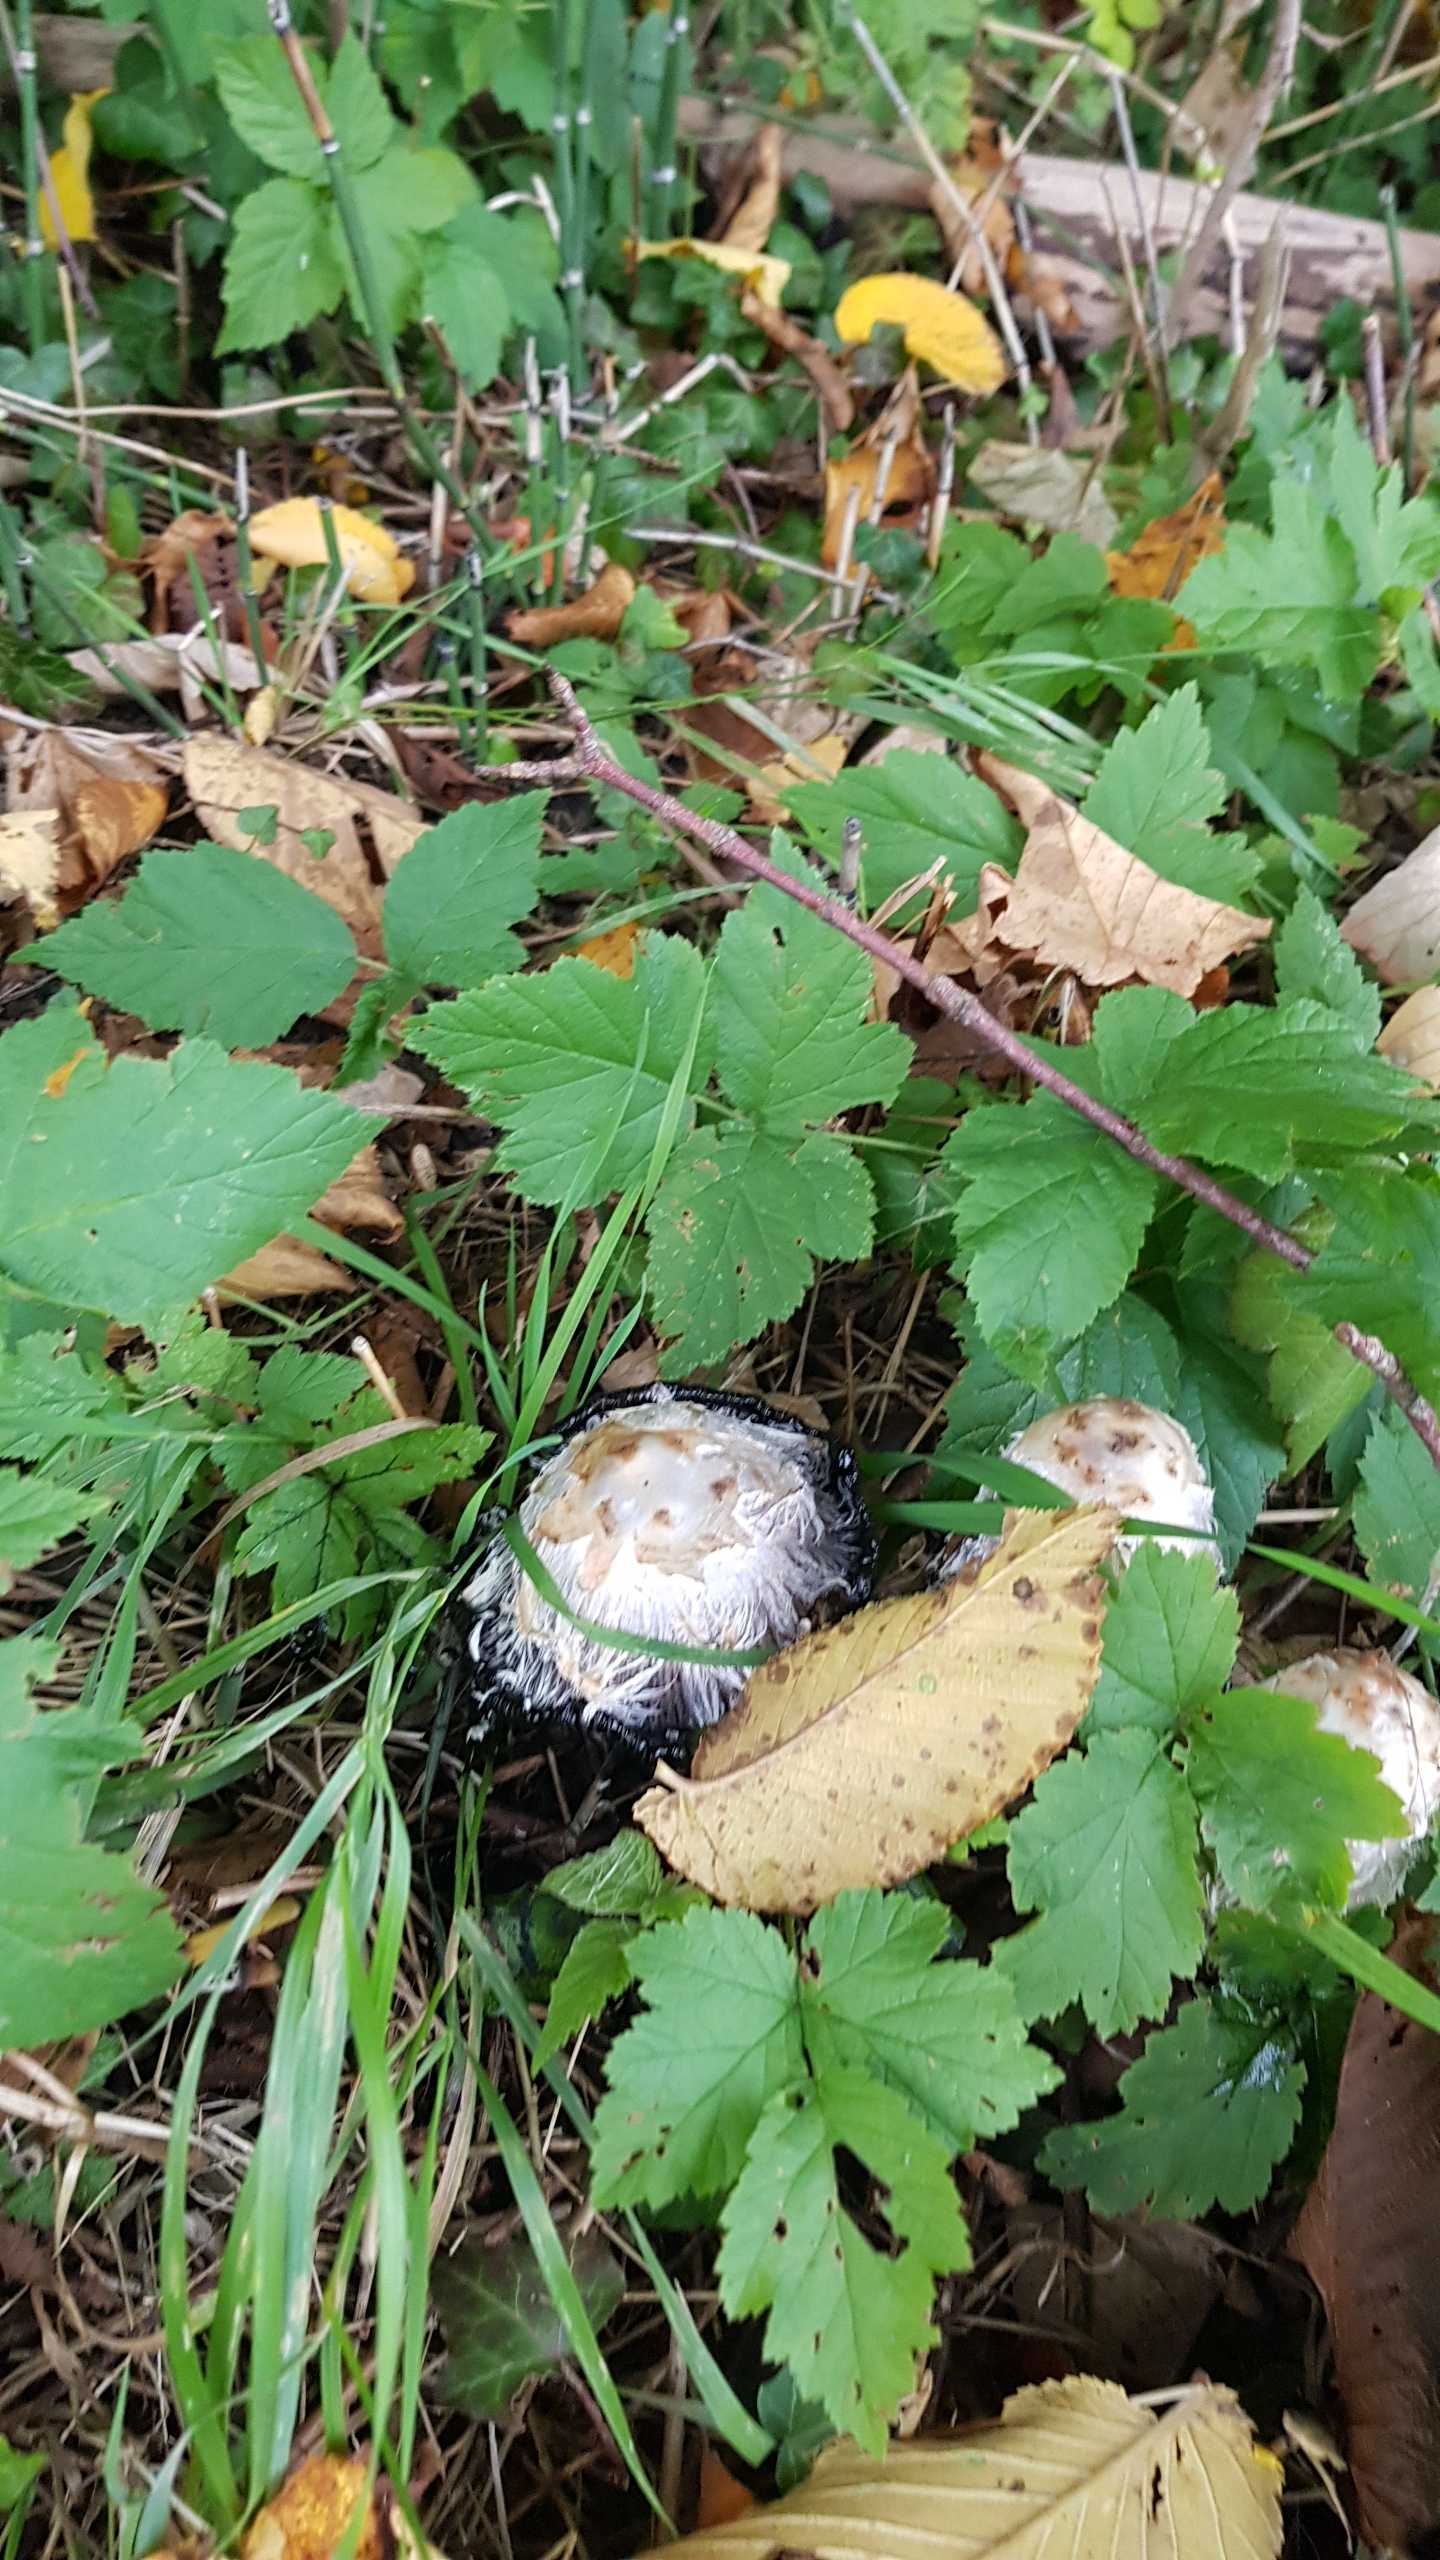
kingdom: Fungi
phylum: Basidiomycota
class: Agaricomycetes
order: Agaricales
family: Agaricaceae
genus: Coprinus
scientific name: Coprinus comatus
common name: Stor parykhat
